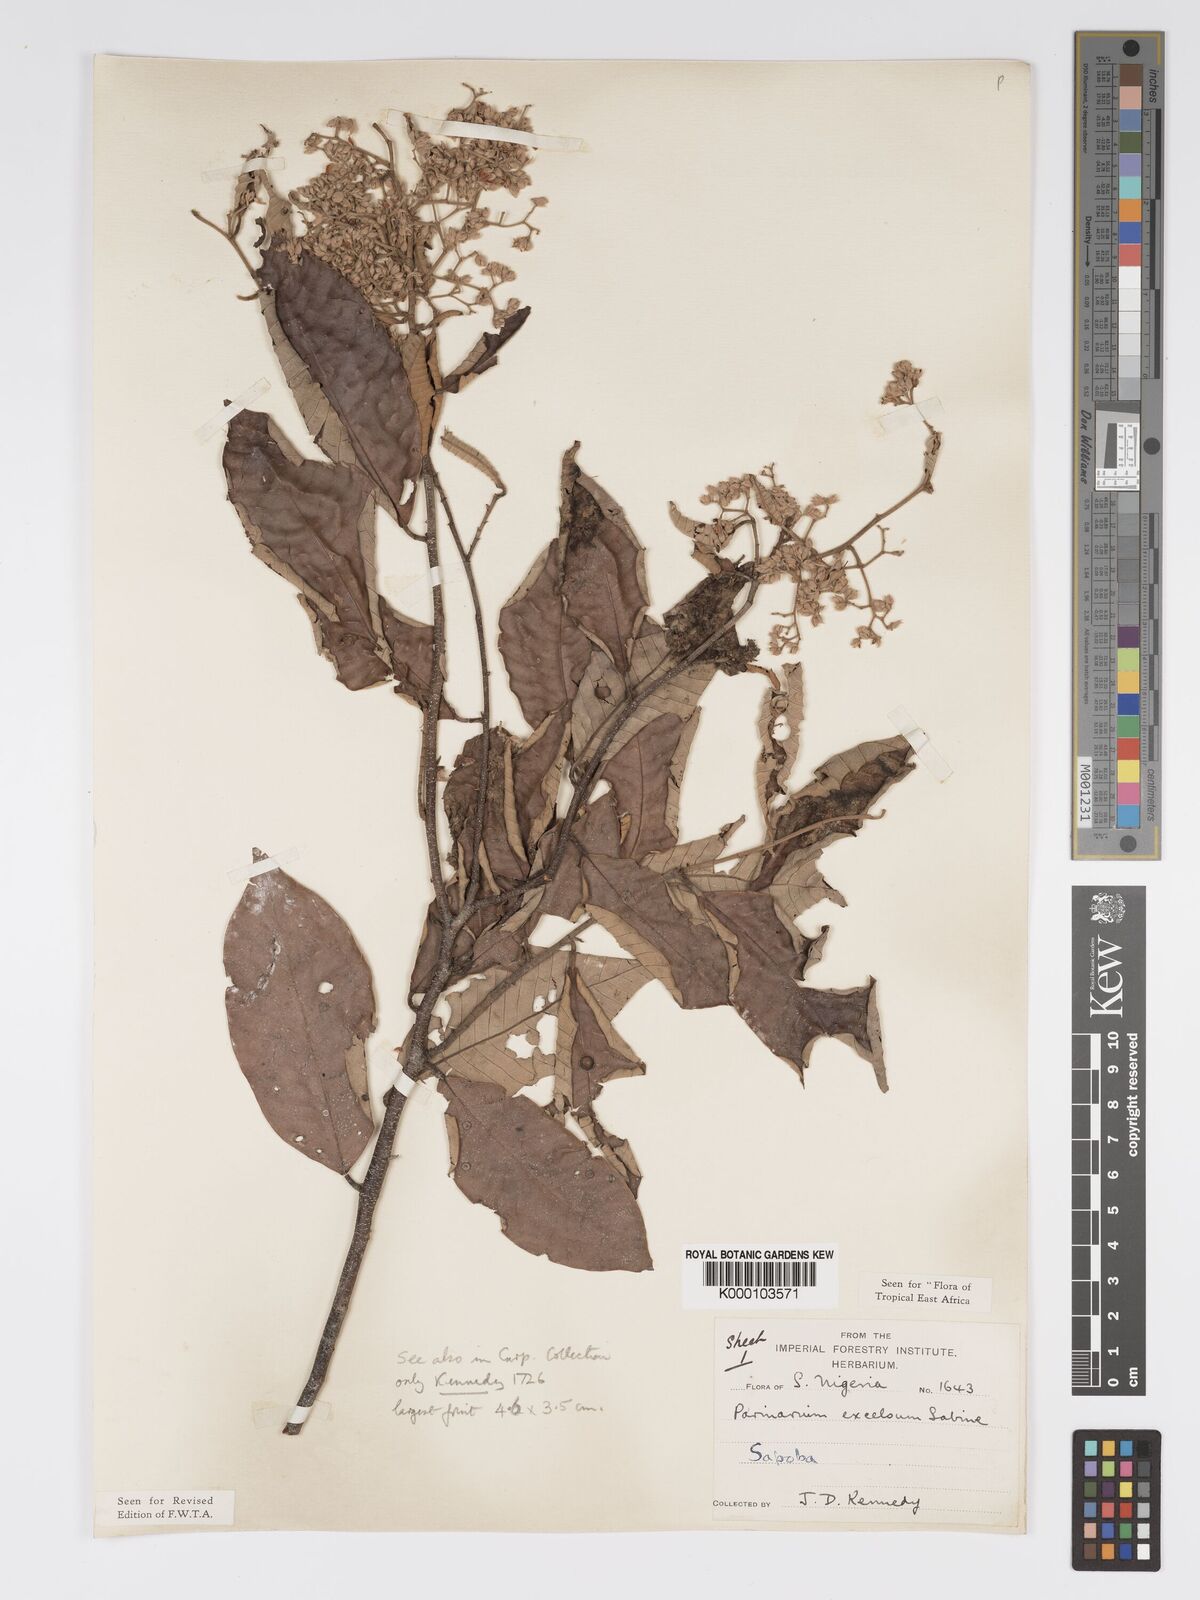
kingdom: Plantae
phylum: Tracheophyta
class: Magnoliopsida
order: Malpighiales
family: Chrysobalanaceae
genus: Parinari
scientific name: Parinari excelsa
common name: Guinea-plum
